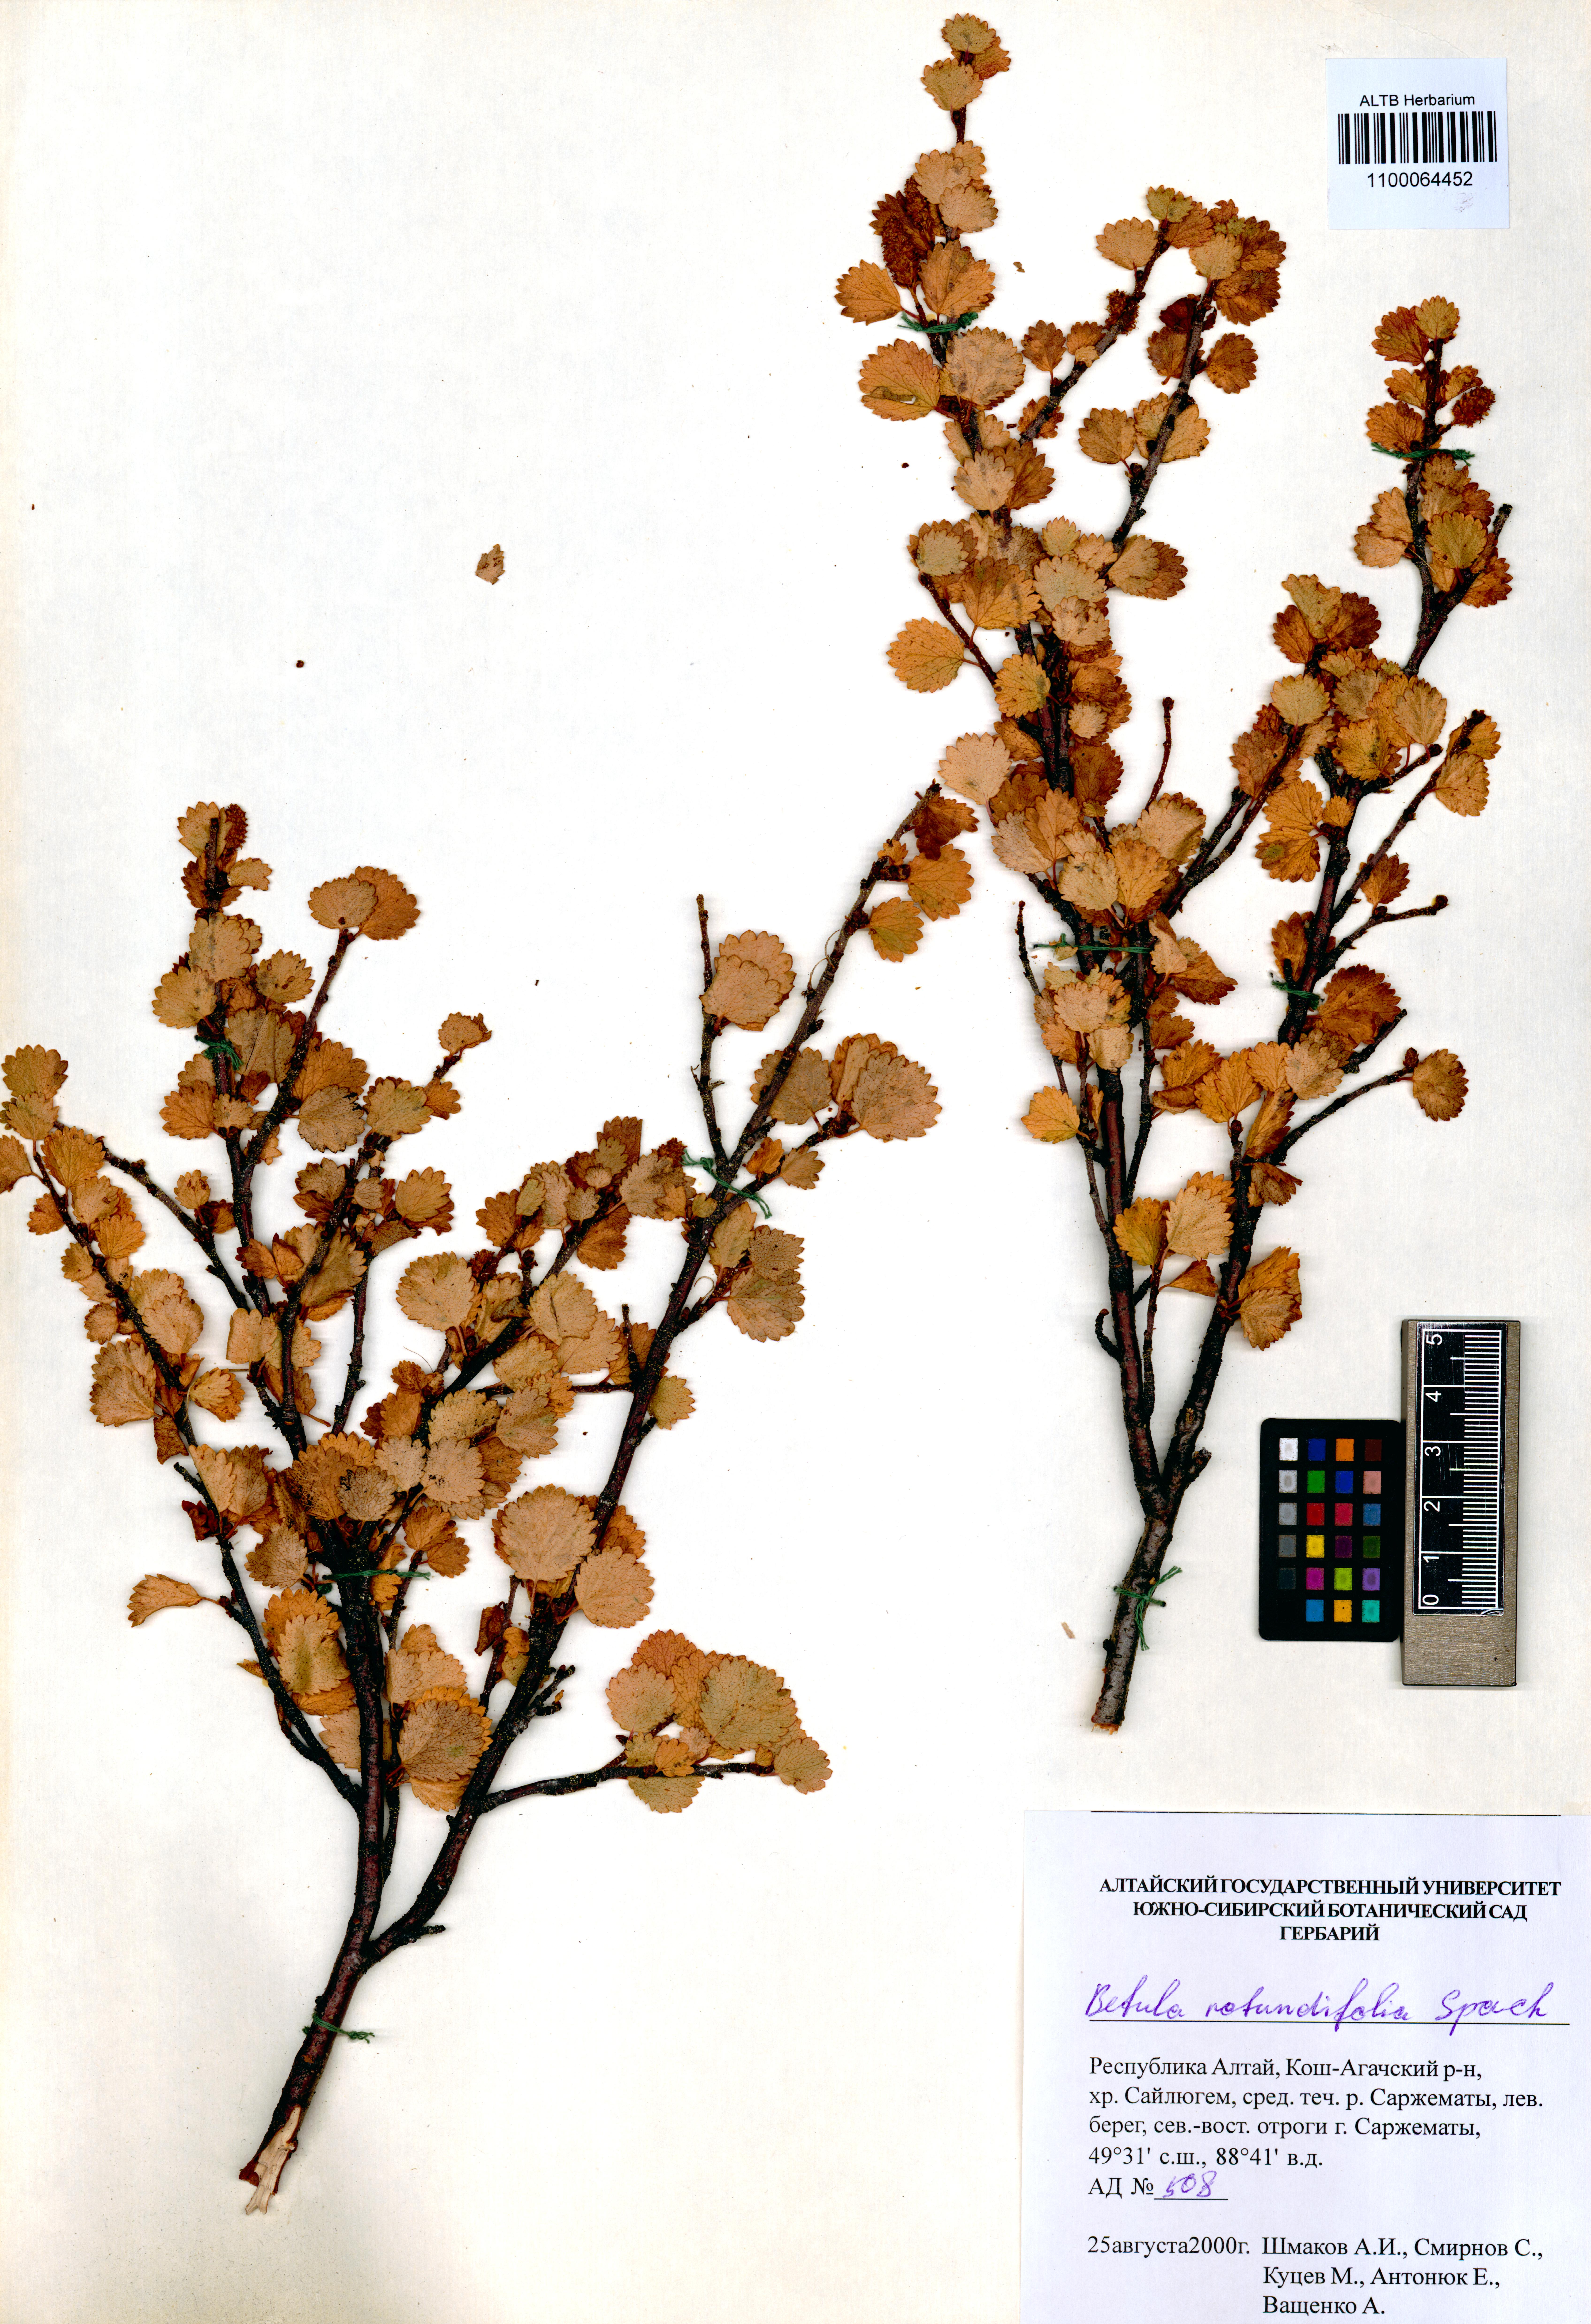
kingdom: Plantae
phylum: Tracheophyta
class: Magnoliopsida
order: Fagales
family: Betulaceae
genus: Betula
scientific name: Betula glandulosa
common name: Dwarf birch
